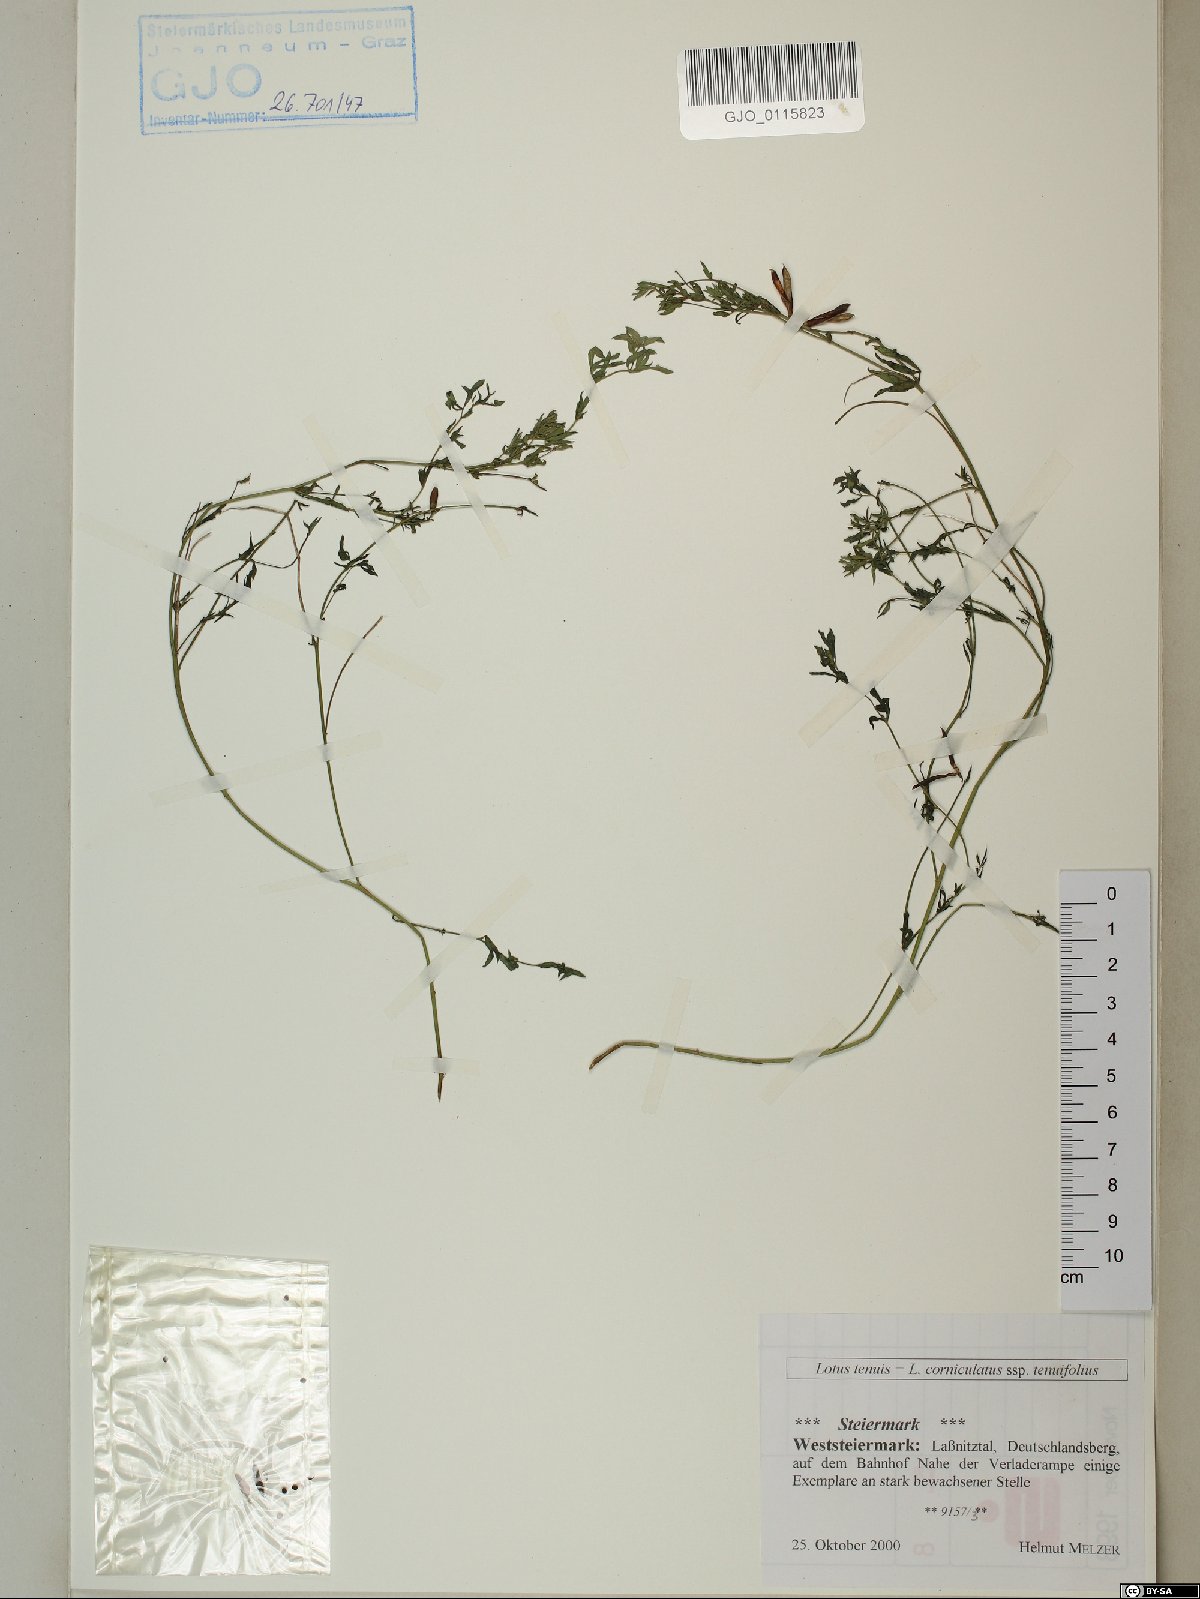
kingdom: Plantae
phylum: Tracheophyta
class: Magnoliopsida
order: Fabales
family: Fabaceae
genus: Lotus
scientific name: Lotus tenuis
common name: Narrow-leaved bird's-foot-trefoil
